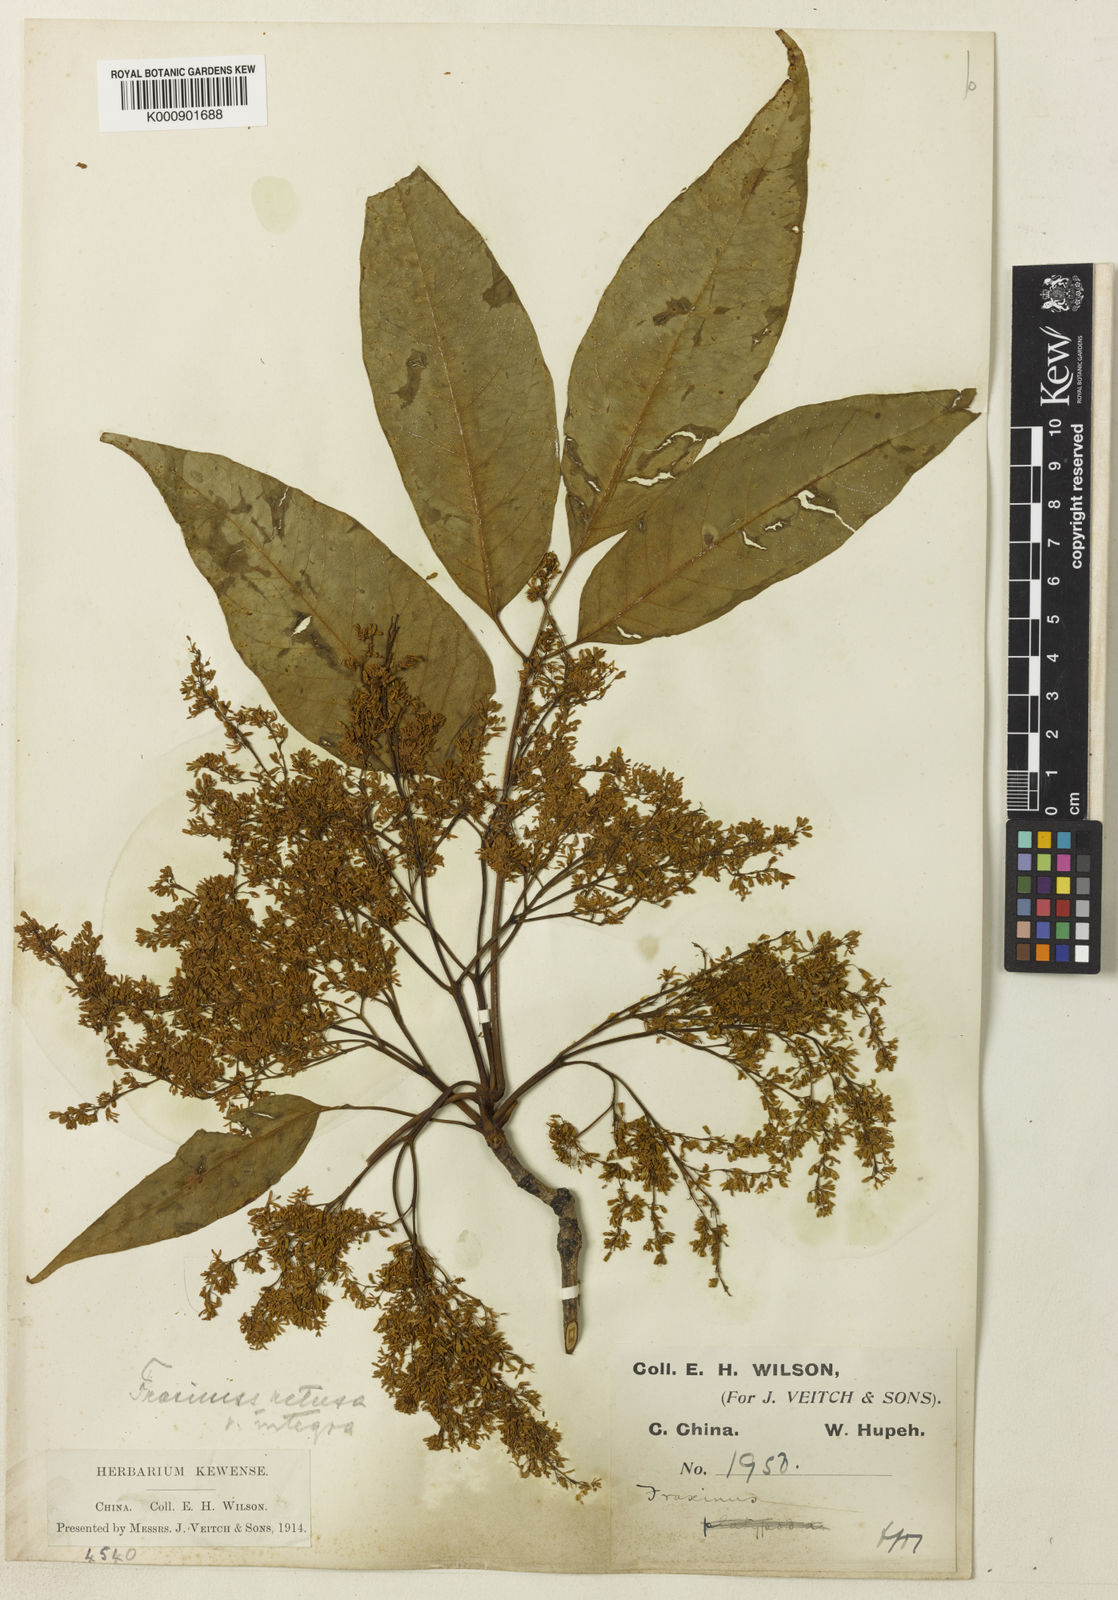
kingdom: Plantae
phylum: Tracheophyta
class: Magnoliopsida
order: Lamiales
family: Oleaceae
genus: Fraxinus
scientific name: Fraxinus floribunda
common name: East indian ash
